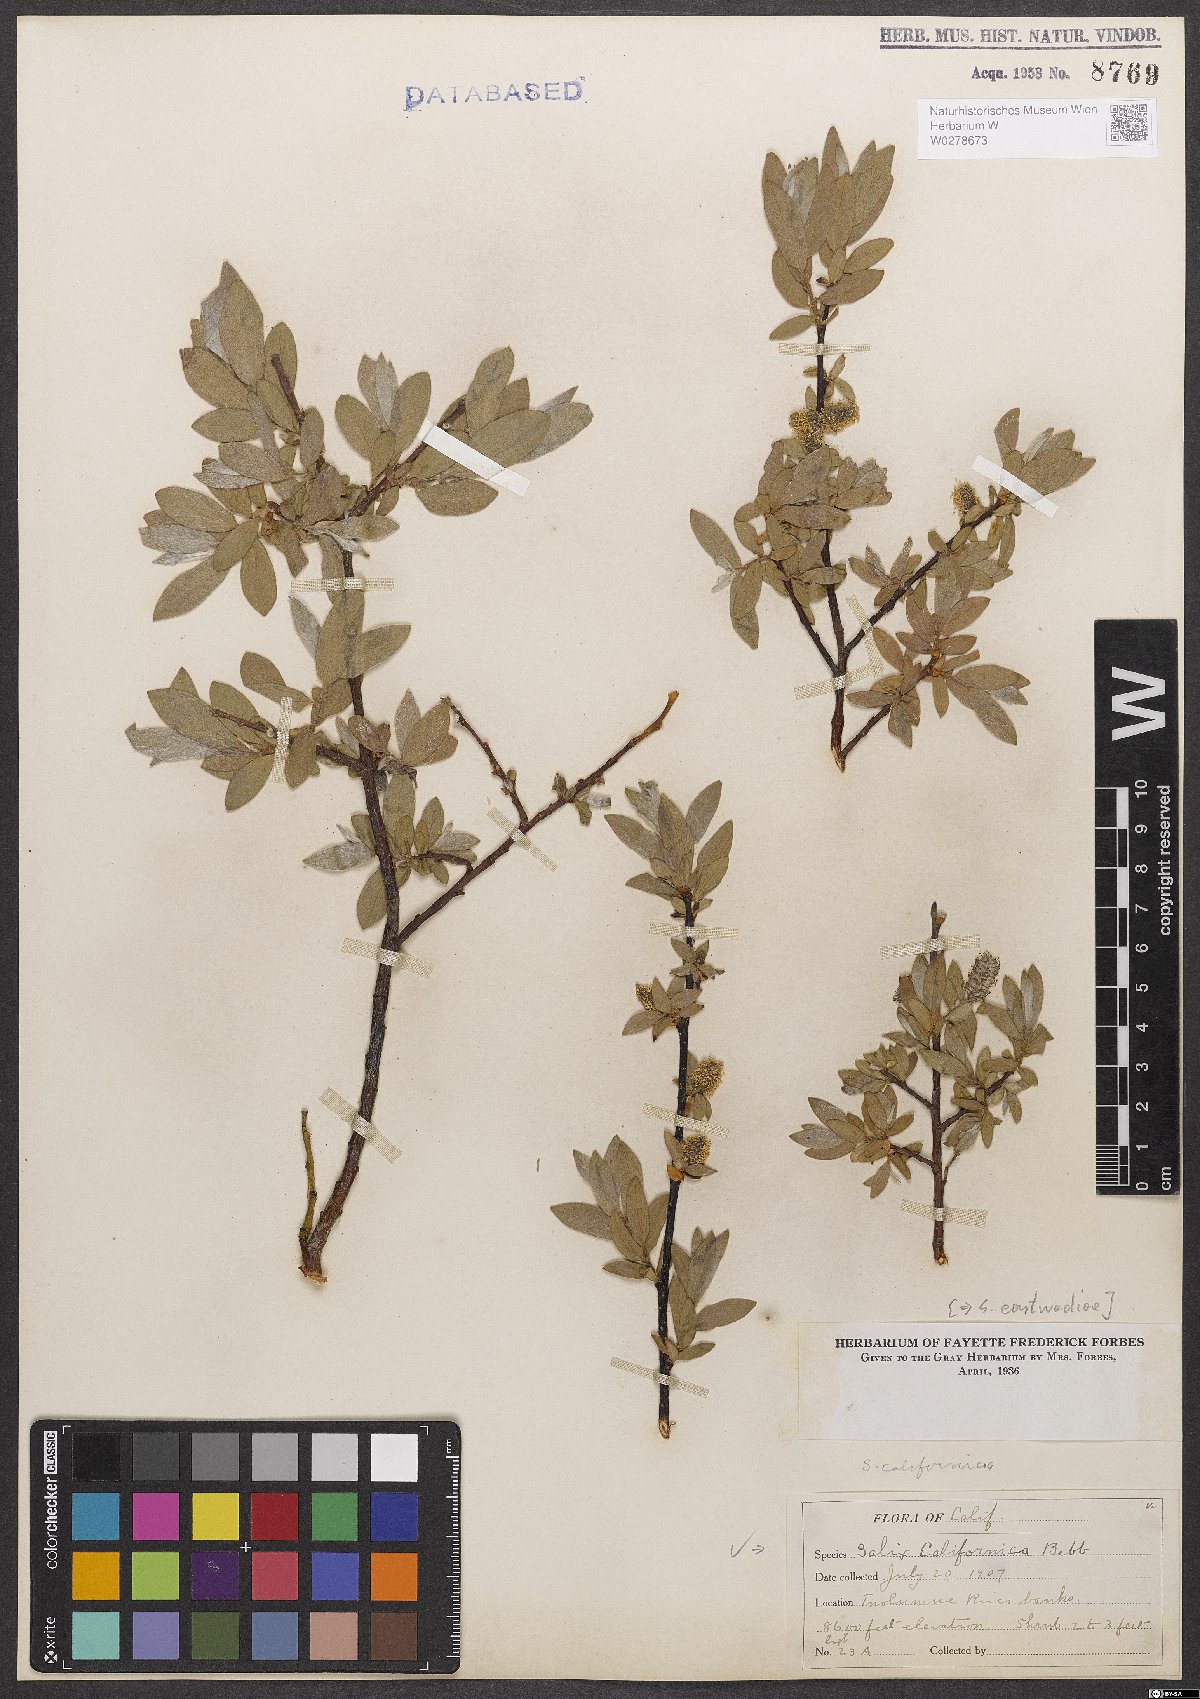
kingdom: Plantae
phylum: Tracheophyta
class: Magnoliopsida
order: Malpighiales
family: Salicaceae
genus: Salix
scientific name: Salix eastwoodiae
